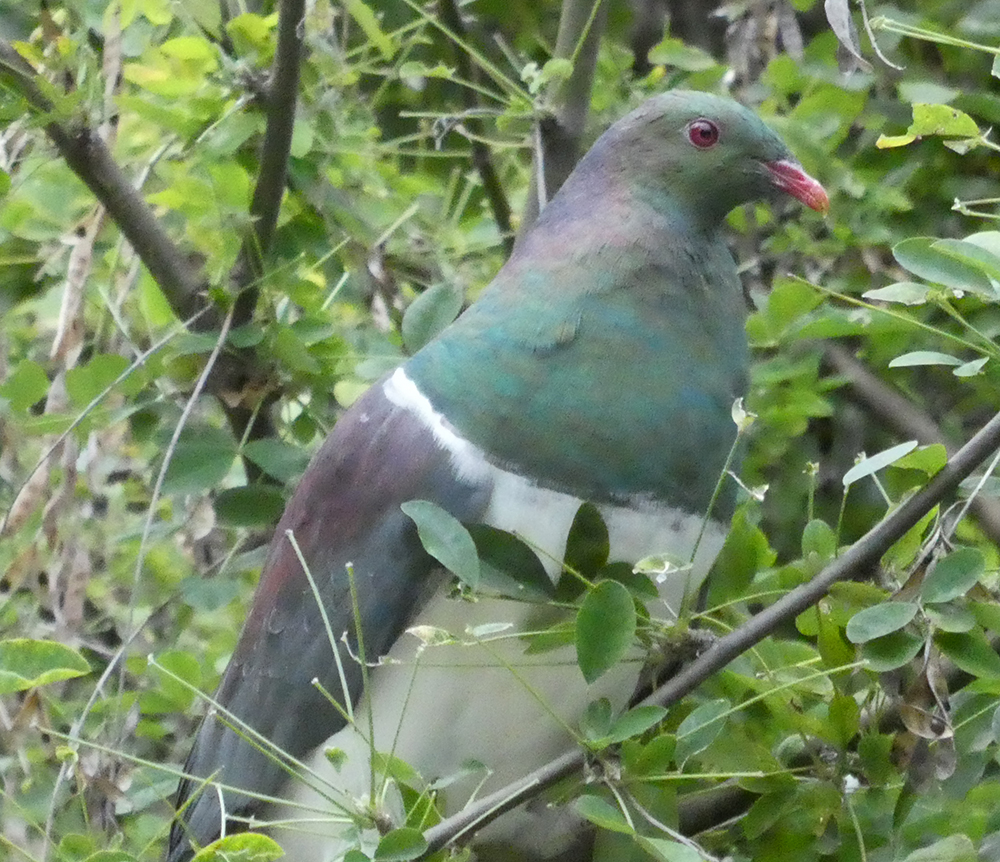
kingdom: Animalia
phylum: Chordata
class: Aves
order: Columbiformes
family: Columbidae
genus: Hemiphaga
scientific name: Hemiphaga novaeseelandiae
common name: New zealand pigeon
